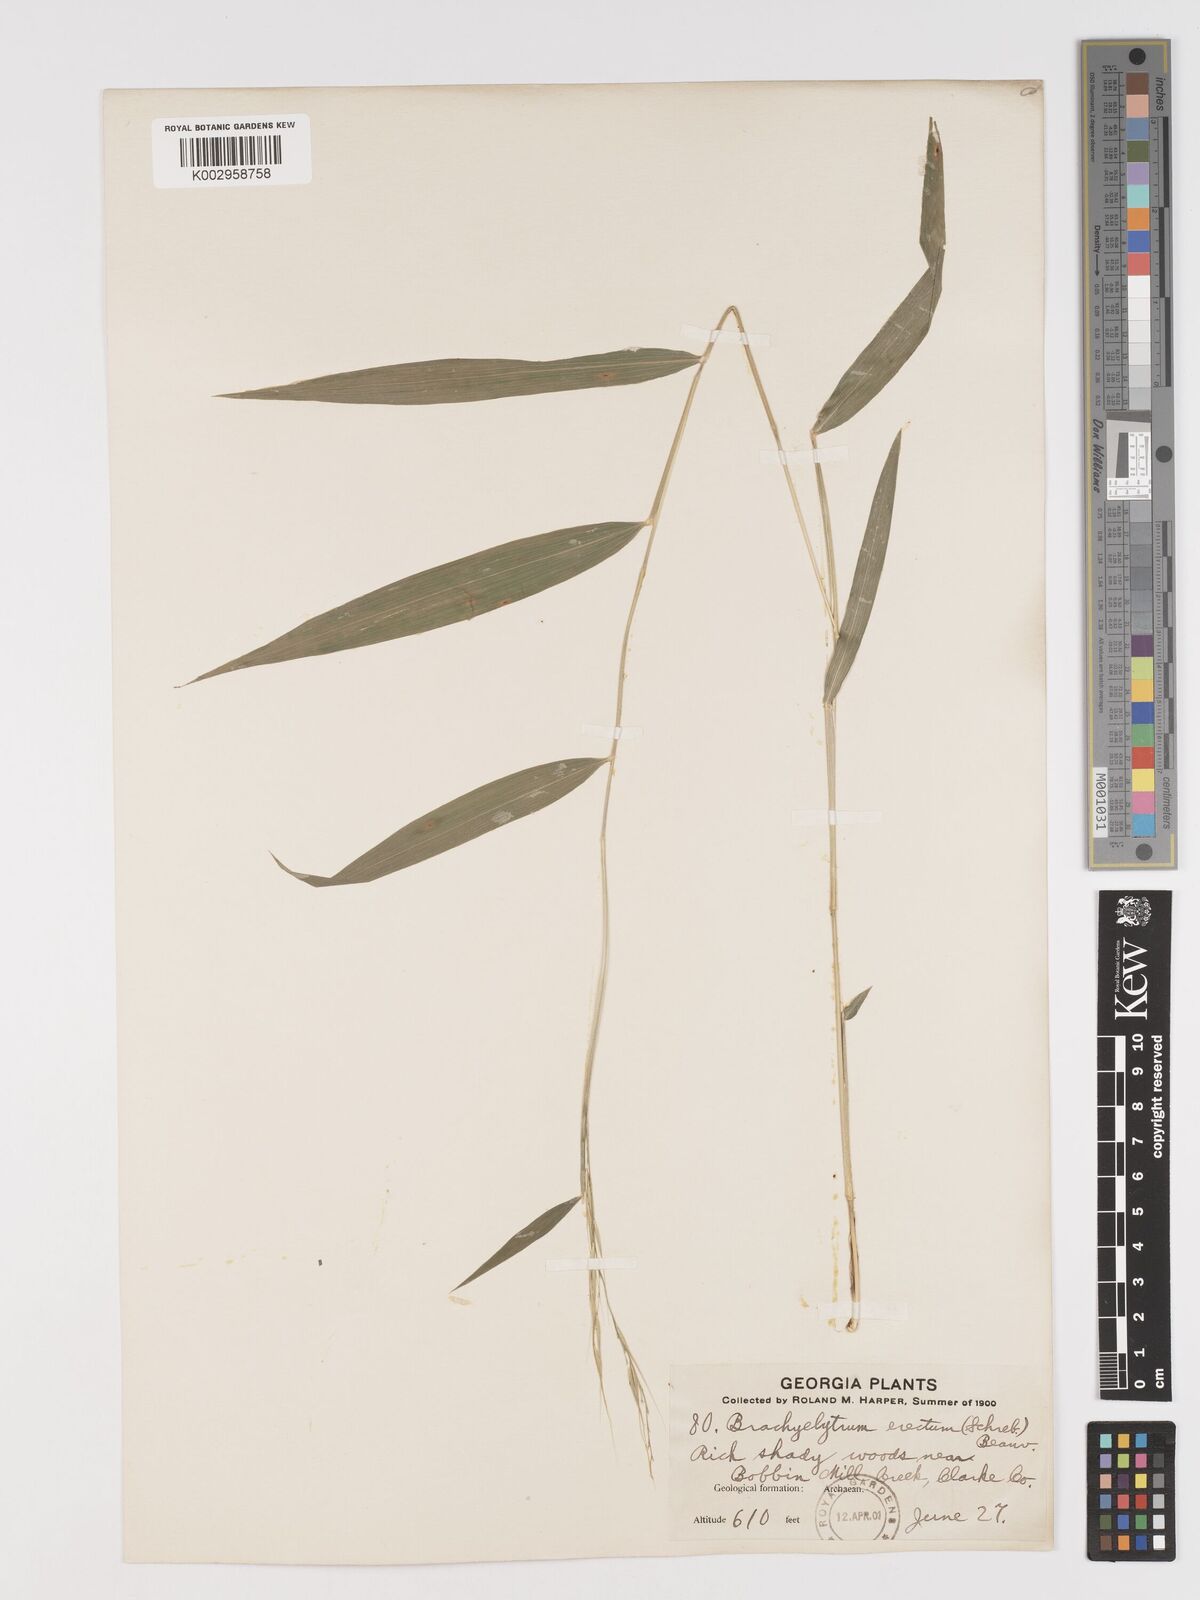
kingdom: Plantae
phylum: Tracheophyta
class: Liliopsida
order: Poales
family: Poaceae
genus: Brachyelytrum
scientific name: Brachyelytrum erectum
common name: Bearded shorthusk
